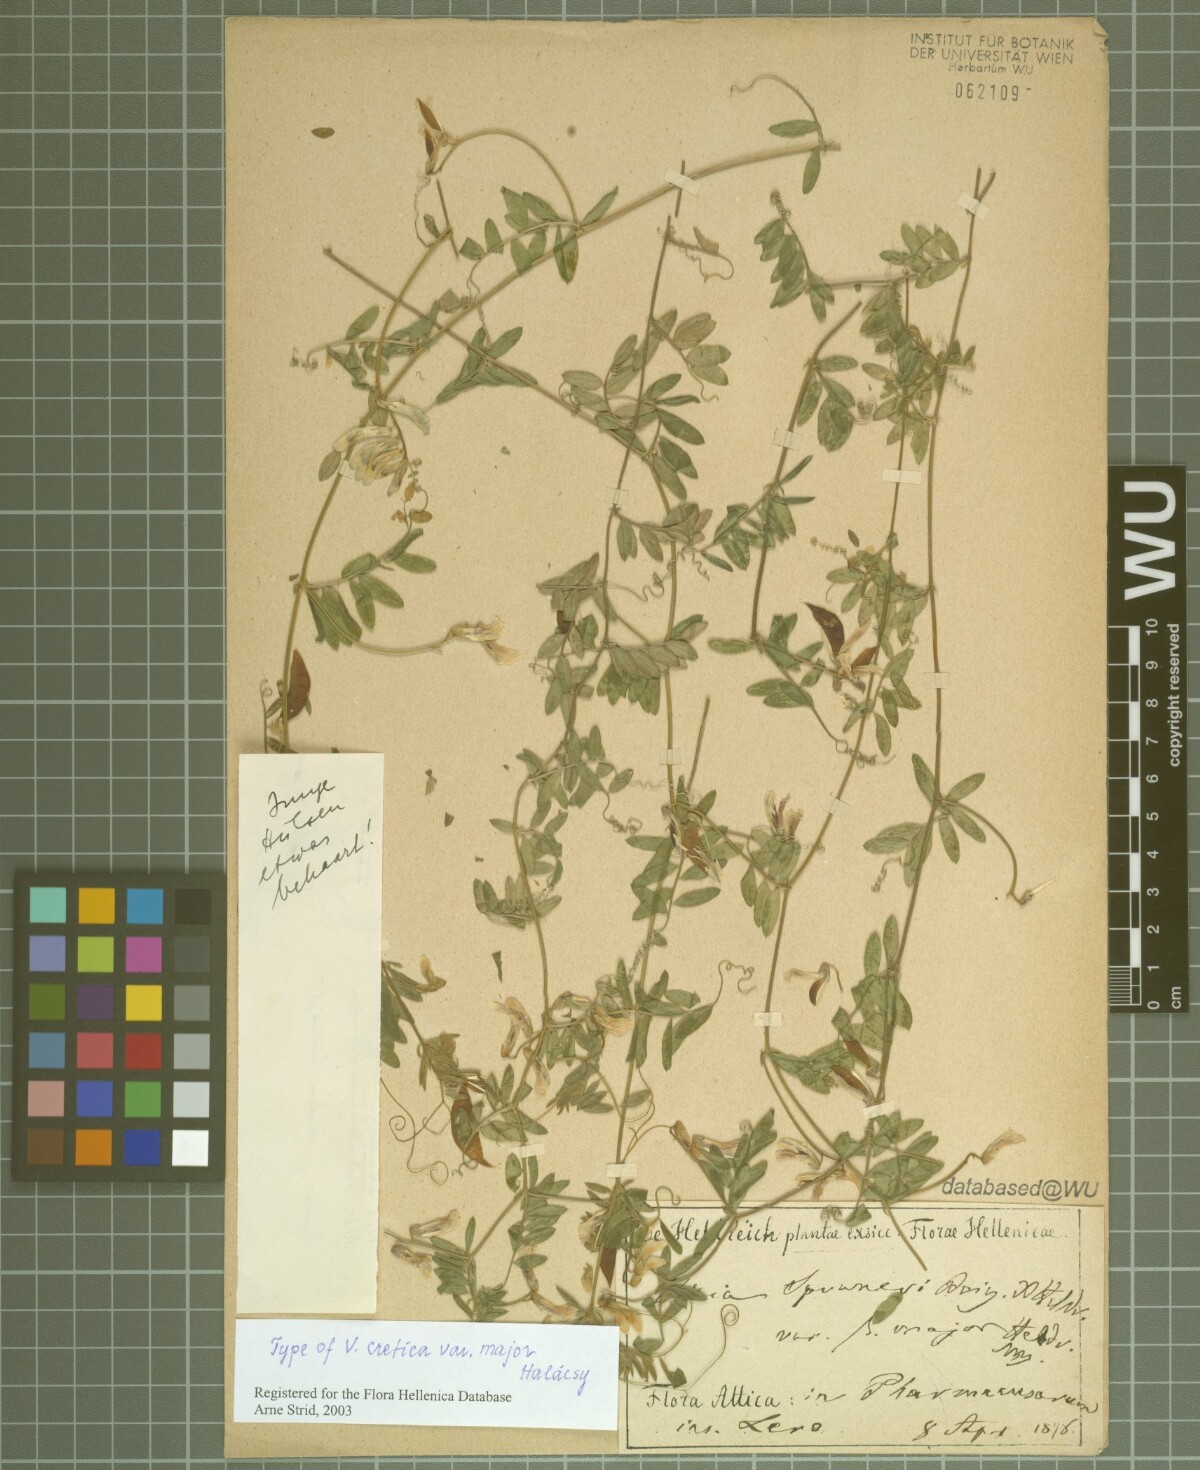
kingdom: Plantae
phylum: Tracheophyta
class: Magnoliopsida
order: Fabales
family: Fabaceae
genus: Vicia
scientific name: Vicia cretica
